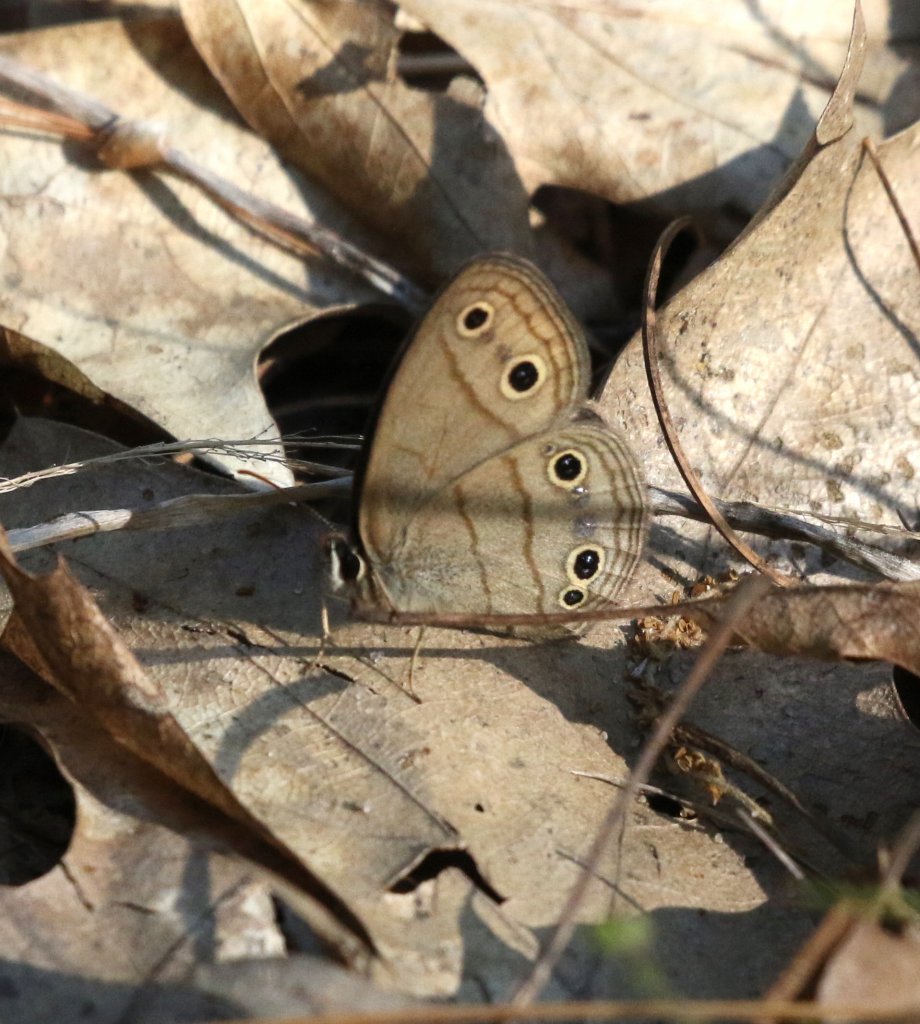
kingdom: Animalia
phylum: Arthropoda
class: Insecta
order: Lepidoptera
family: Nymphalidae
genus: Euptychia
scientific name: Euptychia cymela
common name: Little Wood Satyr
